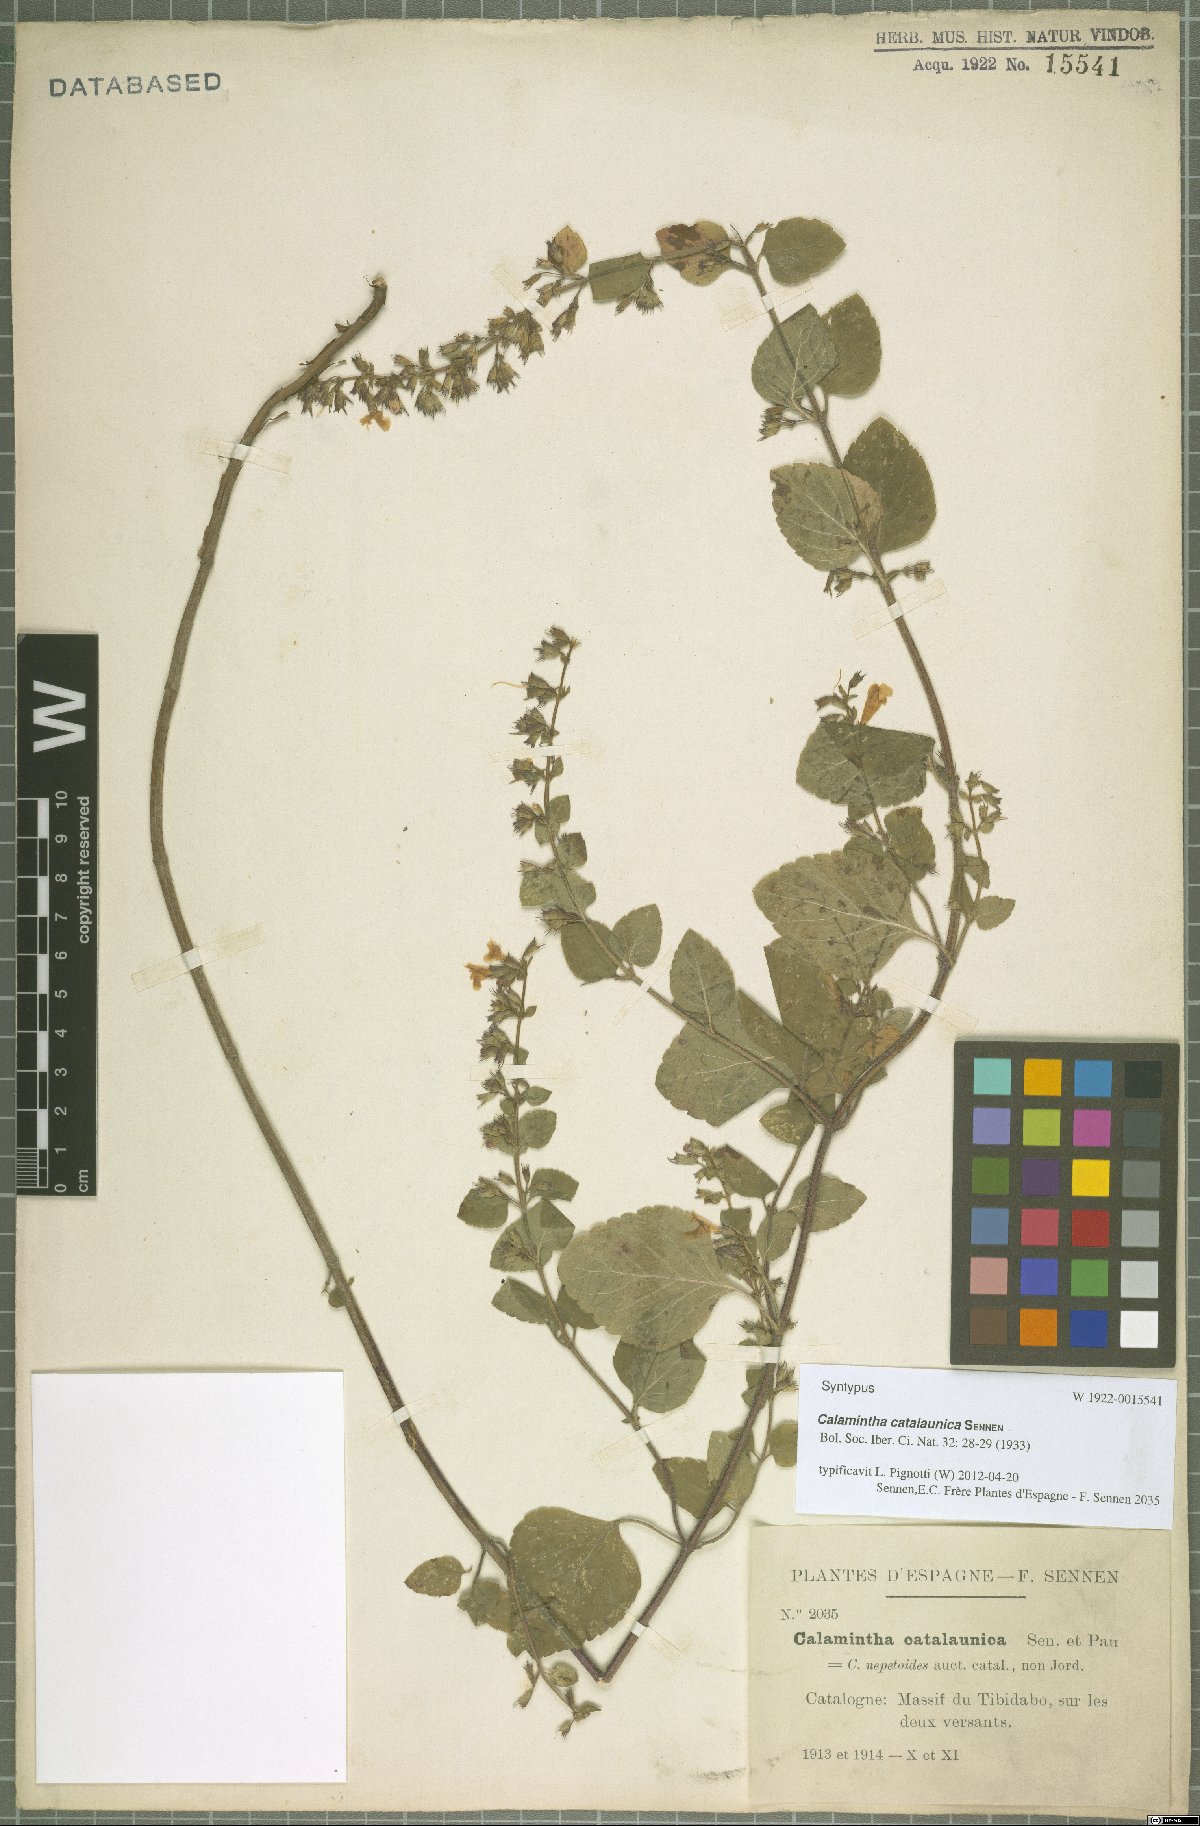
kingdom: Plantae
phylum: Tracheophyta
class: Magnoliopsida
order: Lamiales
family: Lamiaceae
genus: Clinopodium
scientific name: Clinopodium Calamintha catalaunica
